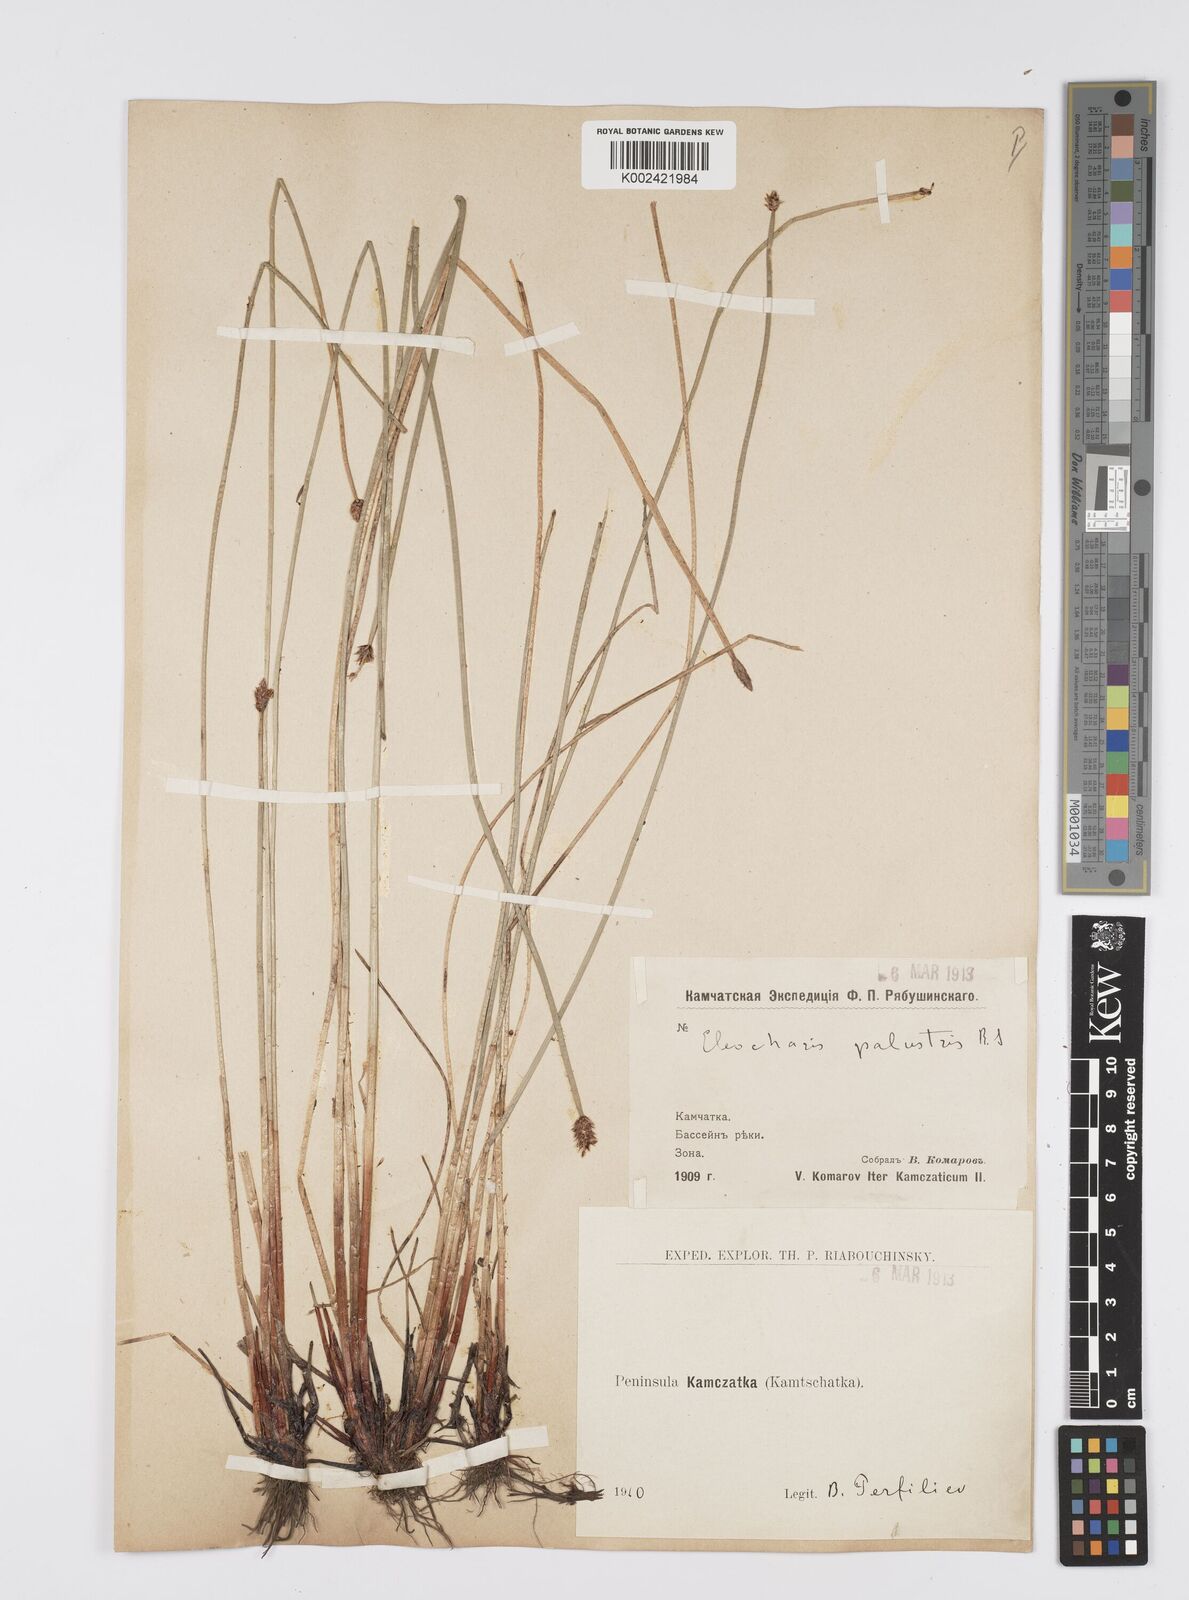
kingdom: Plantae
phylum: Tracheophyta
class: Liliopsida
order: Poales
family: Cyperaceae
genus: Eleocharis
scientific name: Eleocharis palustris
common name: Common spike-rush
